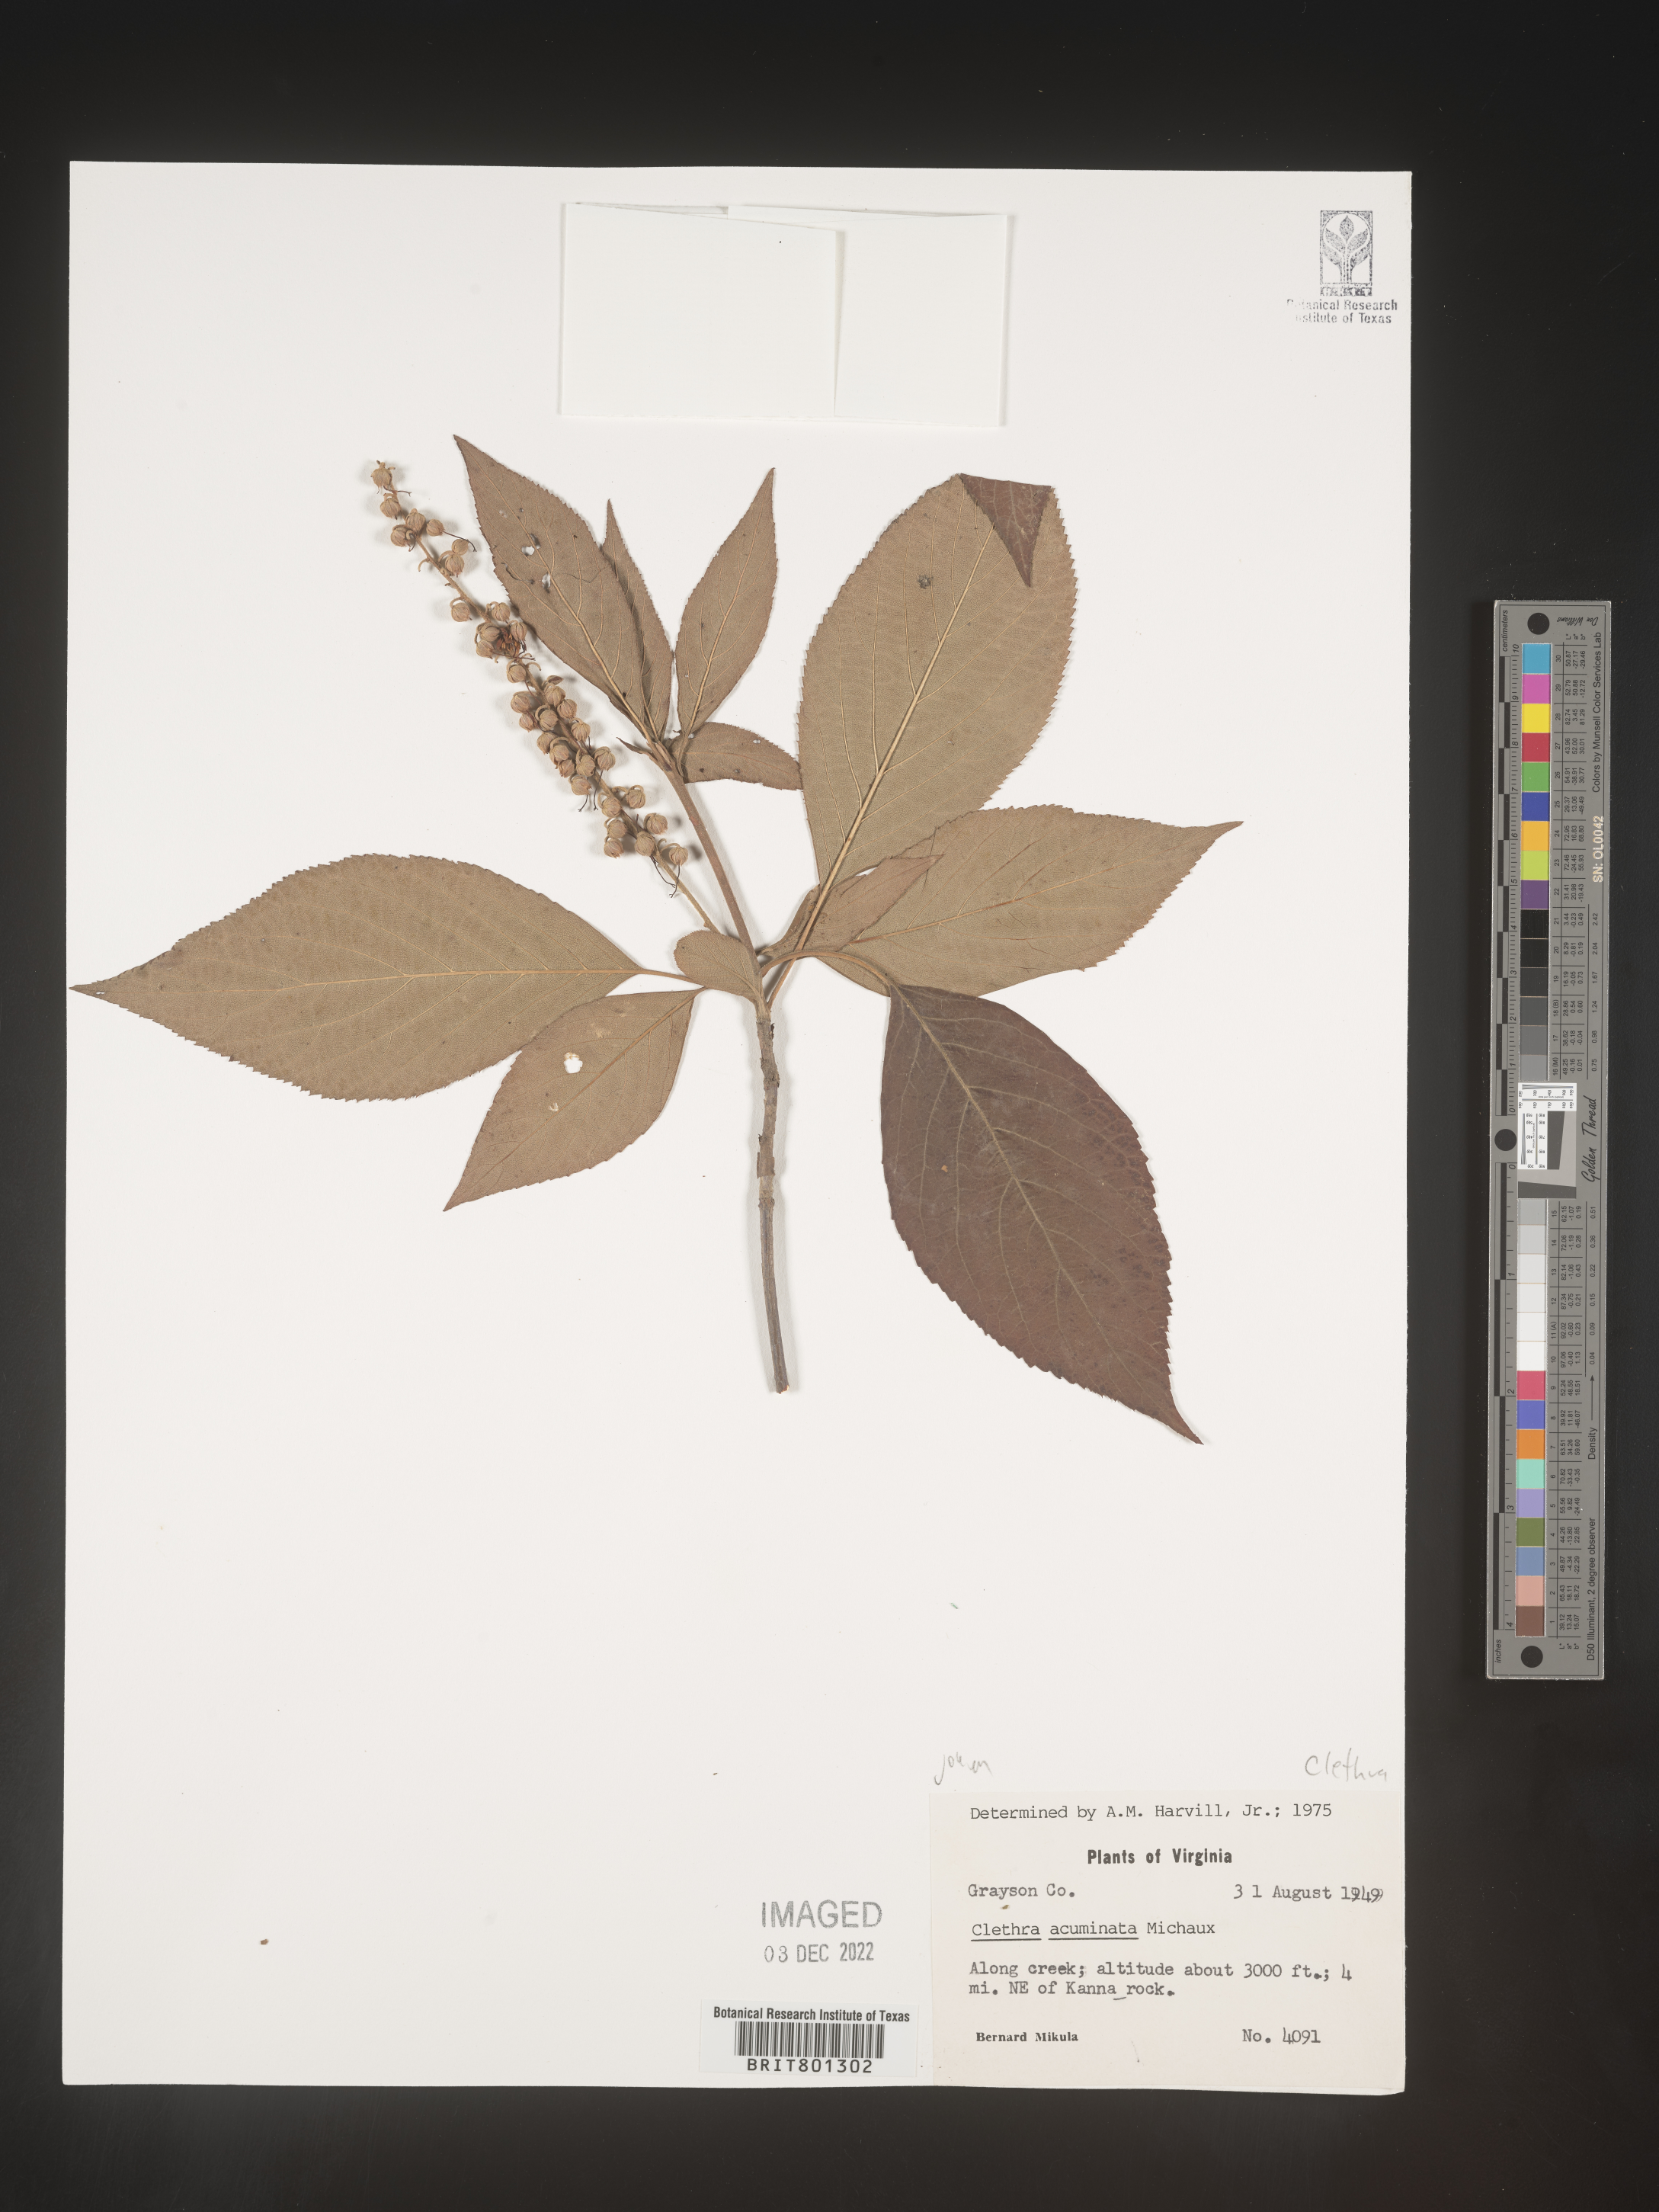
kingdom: Plantae
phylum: Tracheophyta
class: Magnoliopsida
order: Ericales
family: Clethraceae
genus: Clethra
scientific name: Clethra acuminata
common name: Mountain sweet pepperbush
